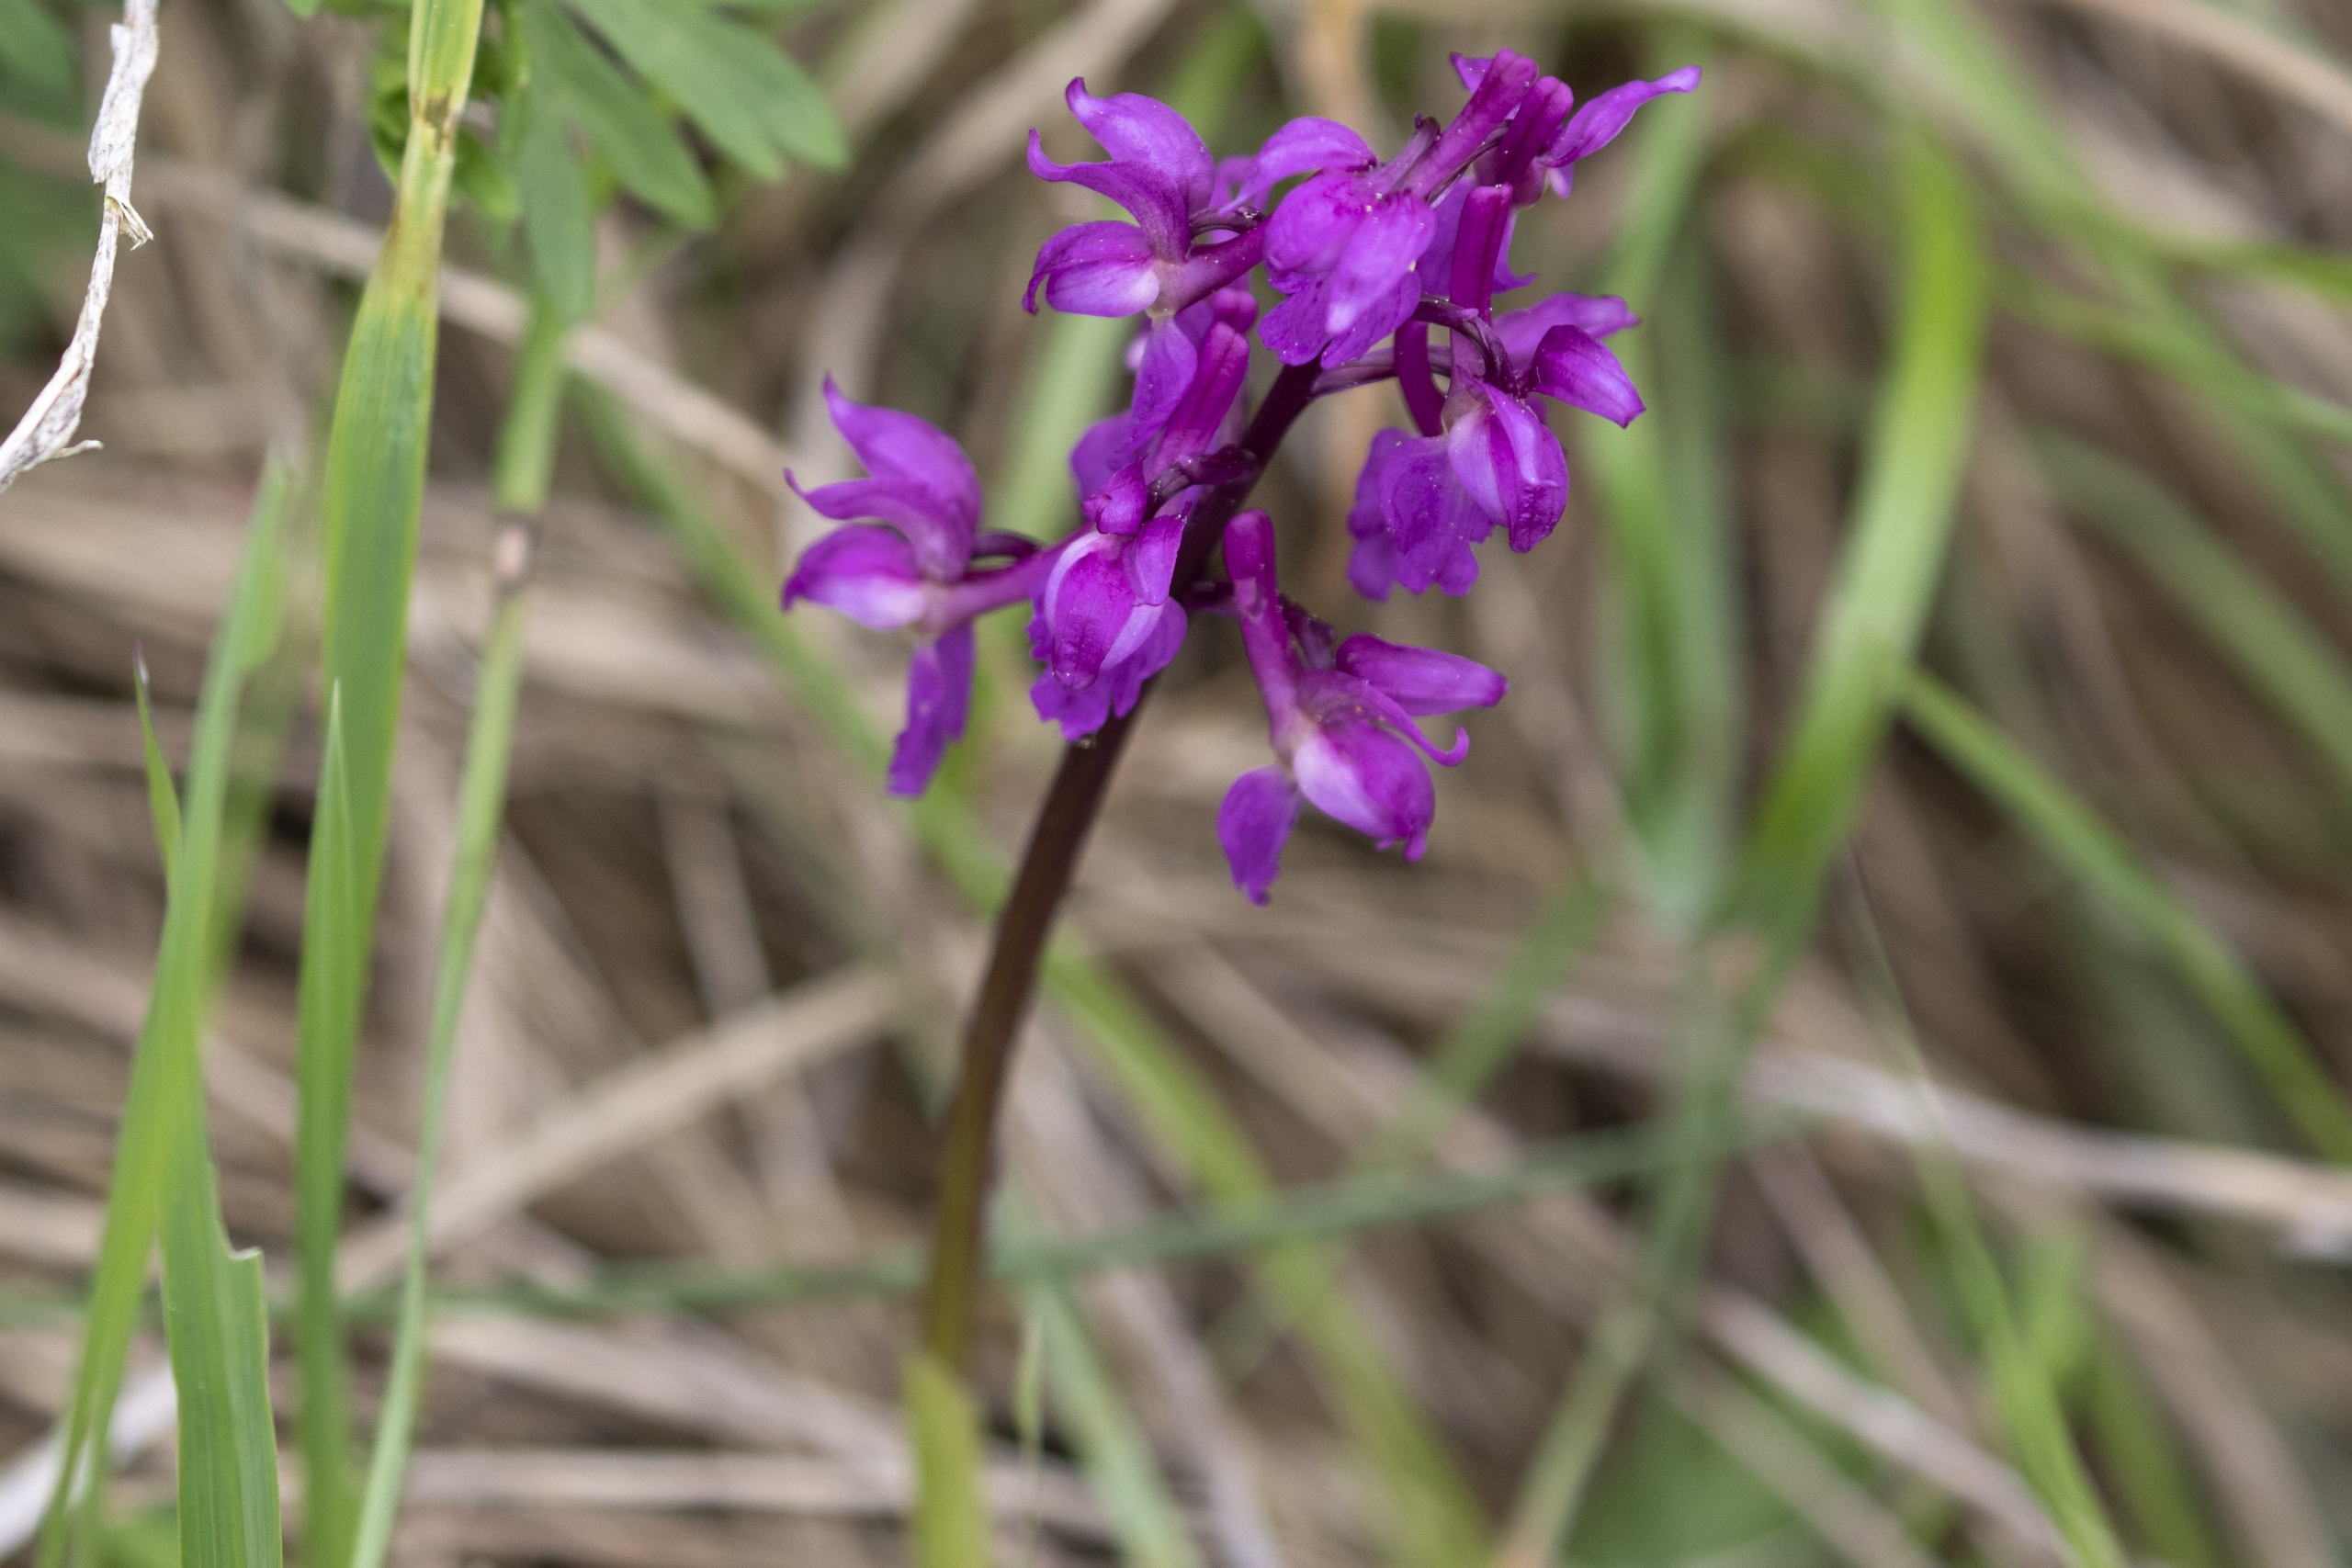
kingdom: Plantae
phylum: Tracheophyta
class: Liliopsida
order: Asparagales
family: Orchidaceae
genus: Orchis
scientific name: Orchis mascula
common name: Tyndakset gøgeurt
